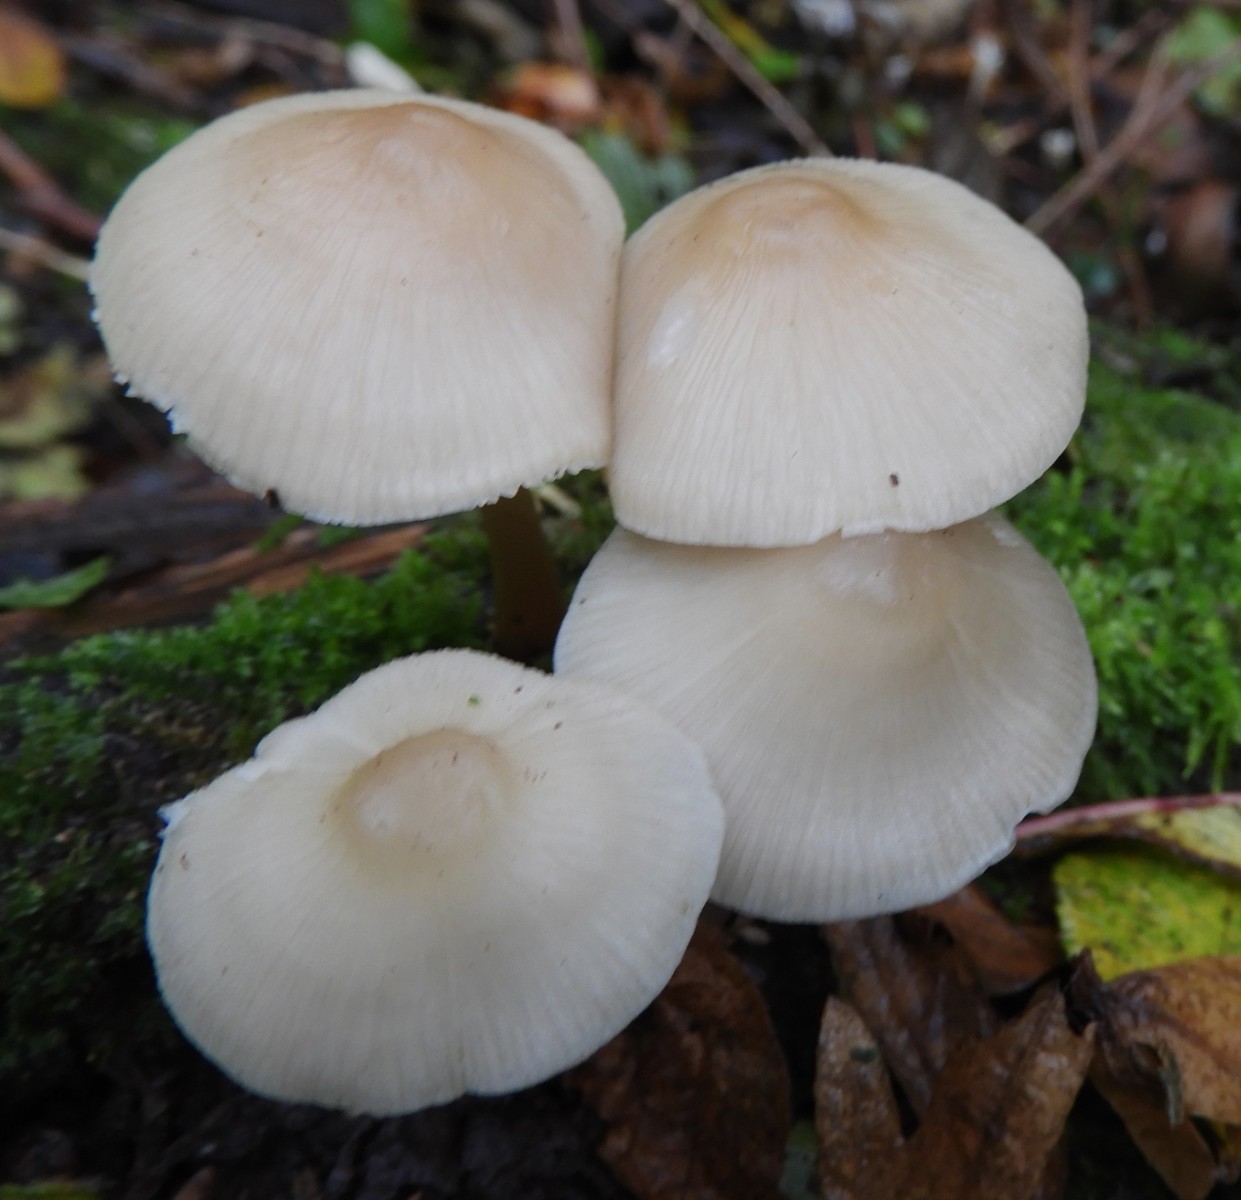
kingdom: Fungi
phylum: Basidiomycota
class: Agaricomycetes
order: Agaricales
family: Mycenaceae
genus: Mycena
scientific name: Mycena galericulata
